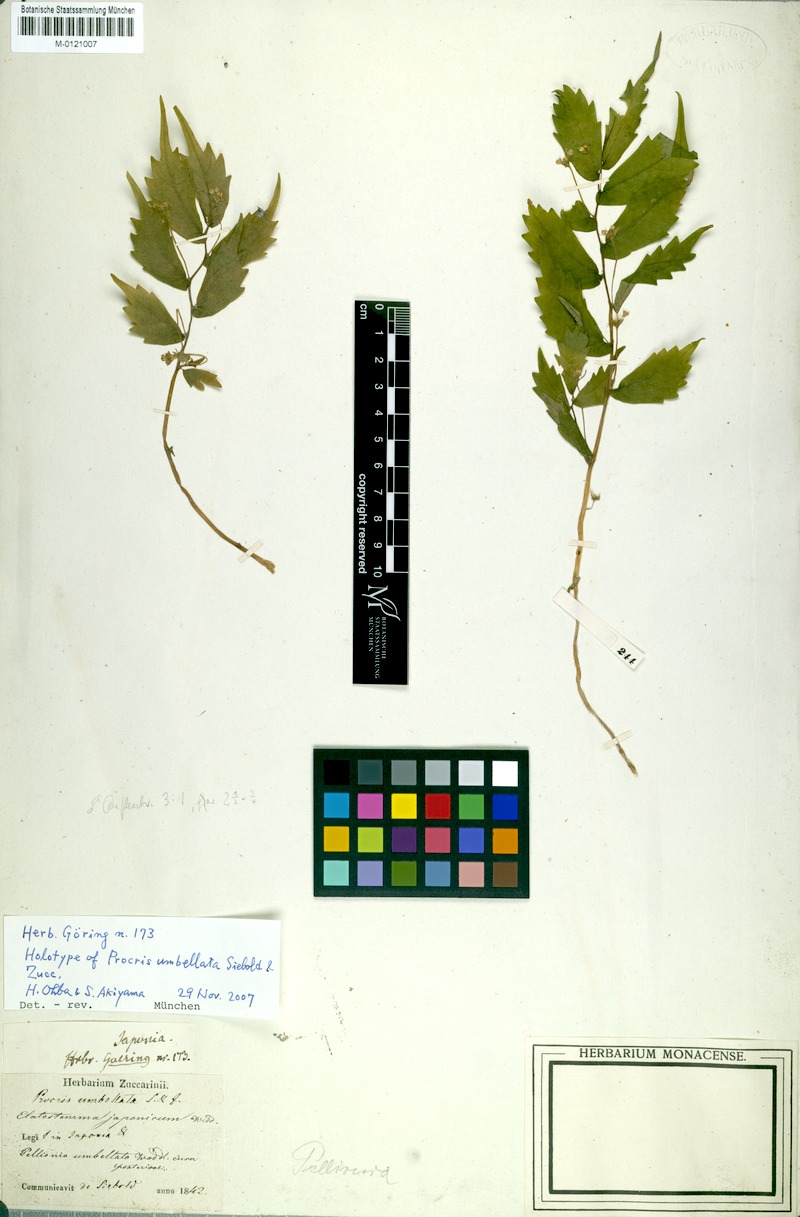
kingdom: Plantae
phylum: Tracheophyta
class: Magnoliopsida
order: Rosales
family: Urticaceae
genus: Elatostema
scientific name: Elatostema umbellatum
